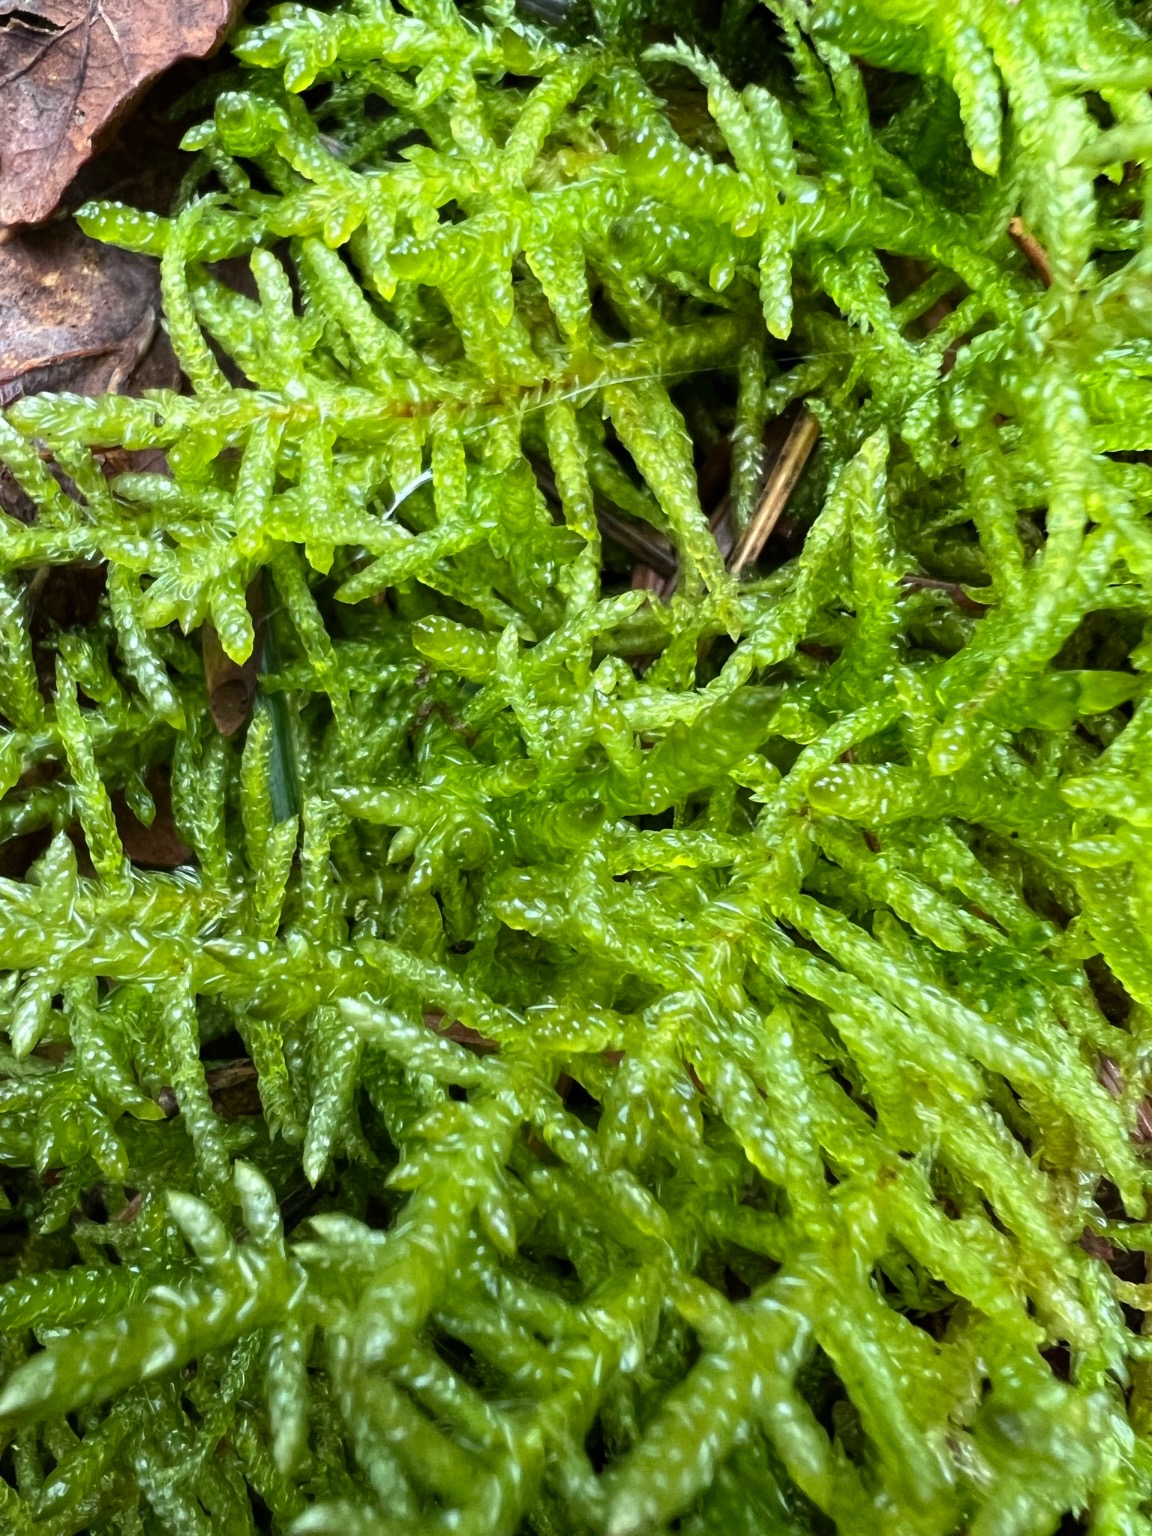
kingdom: Plantae
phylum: Bryophyta
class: Bryopsida
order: Hypnales
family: Brachytheciaceae
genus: Pseudoscleropodium
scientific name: Pseudoscleropodium purum
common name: Hulbladet fedtmos
